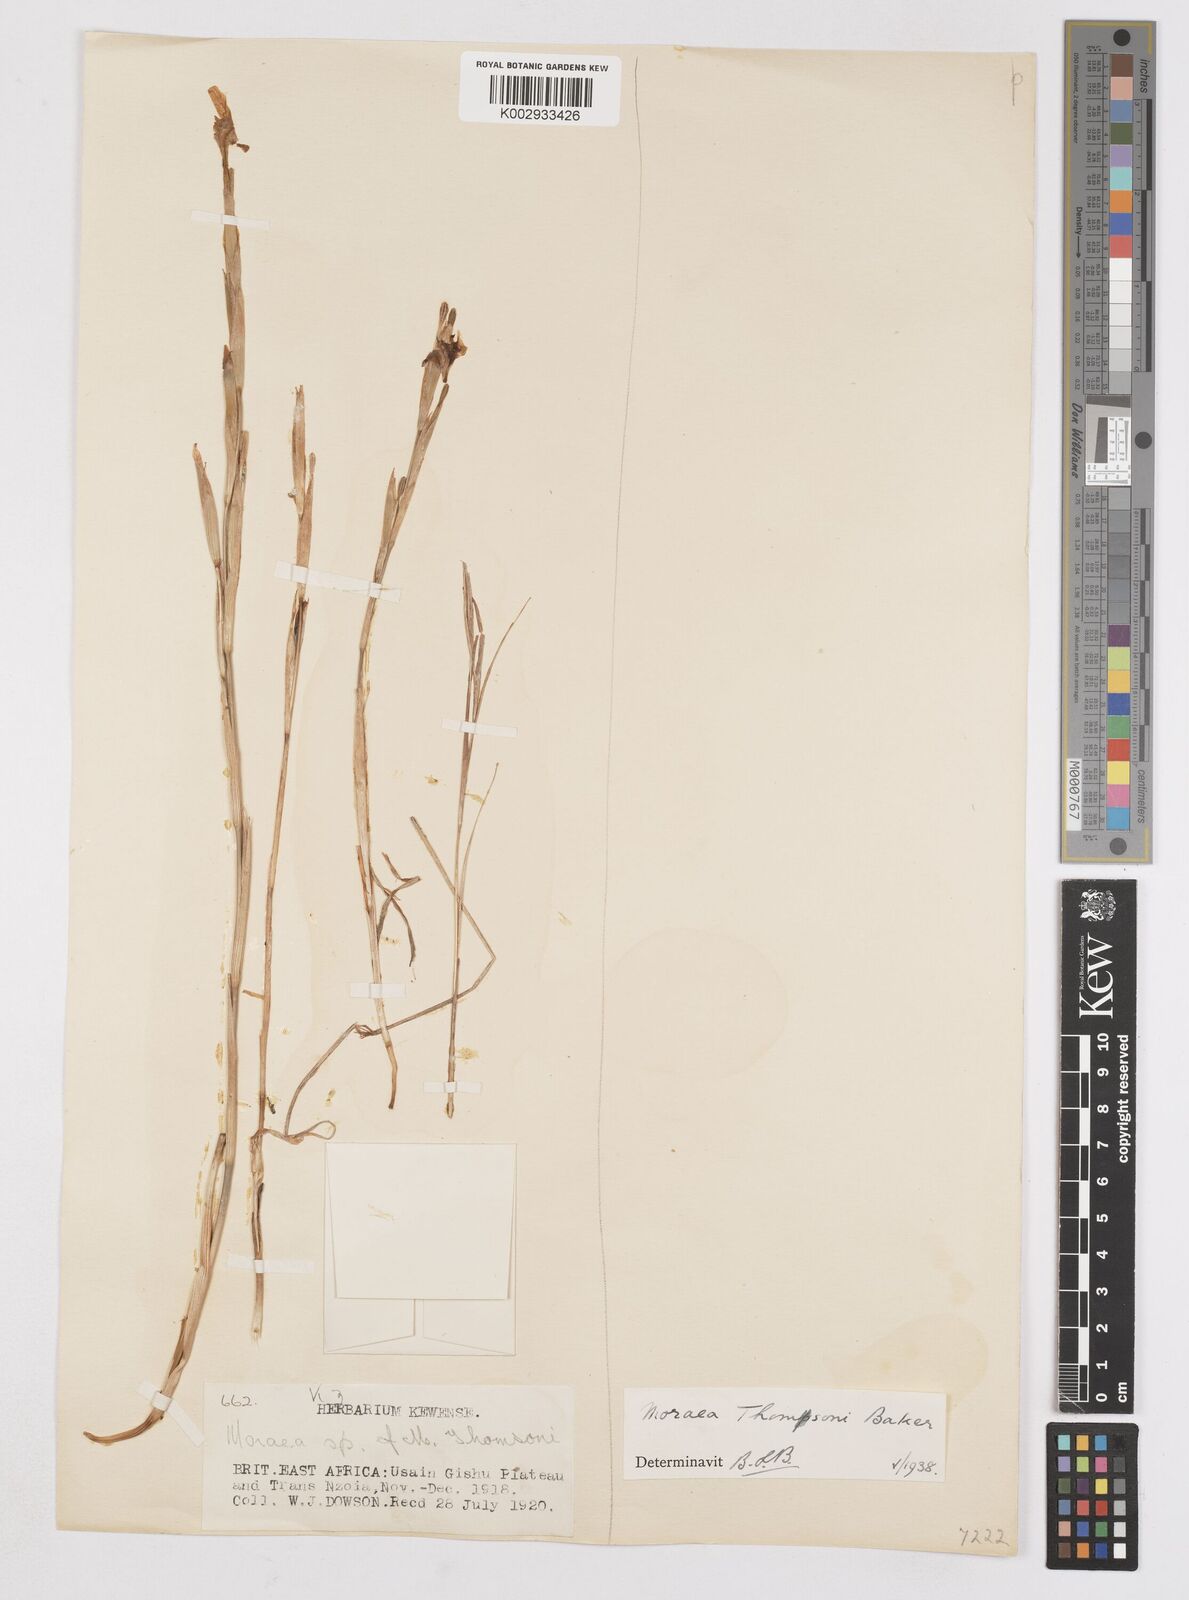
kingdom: Plantae
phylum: Tracheophyta
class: Liliopsida
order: Asparagales
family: Iridaceae
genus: Moraea
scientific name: Moraea thomsonii
